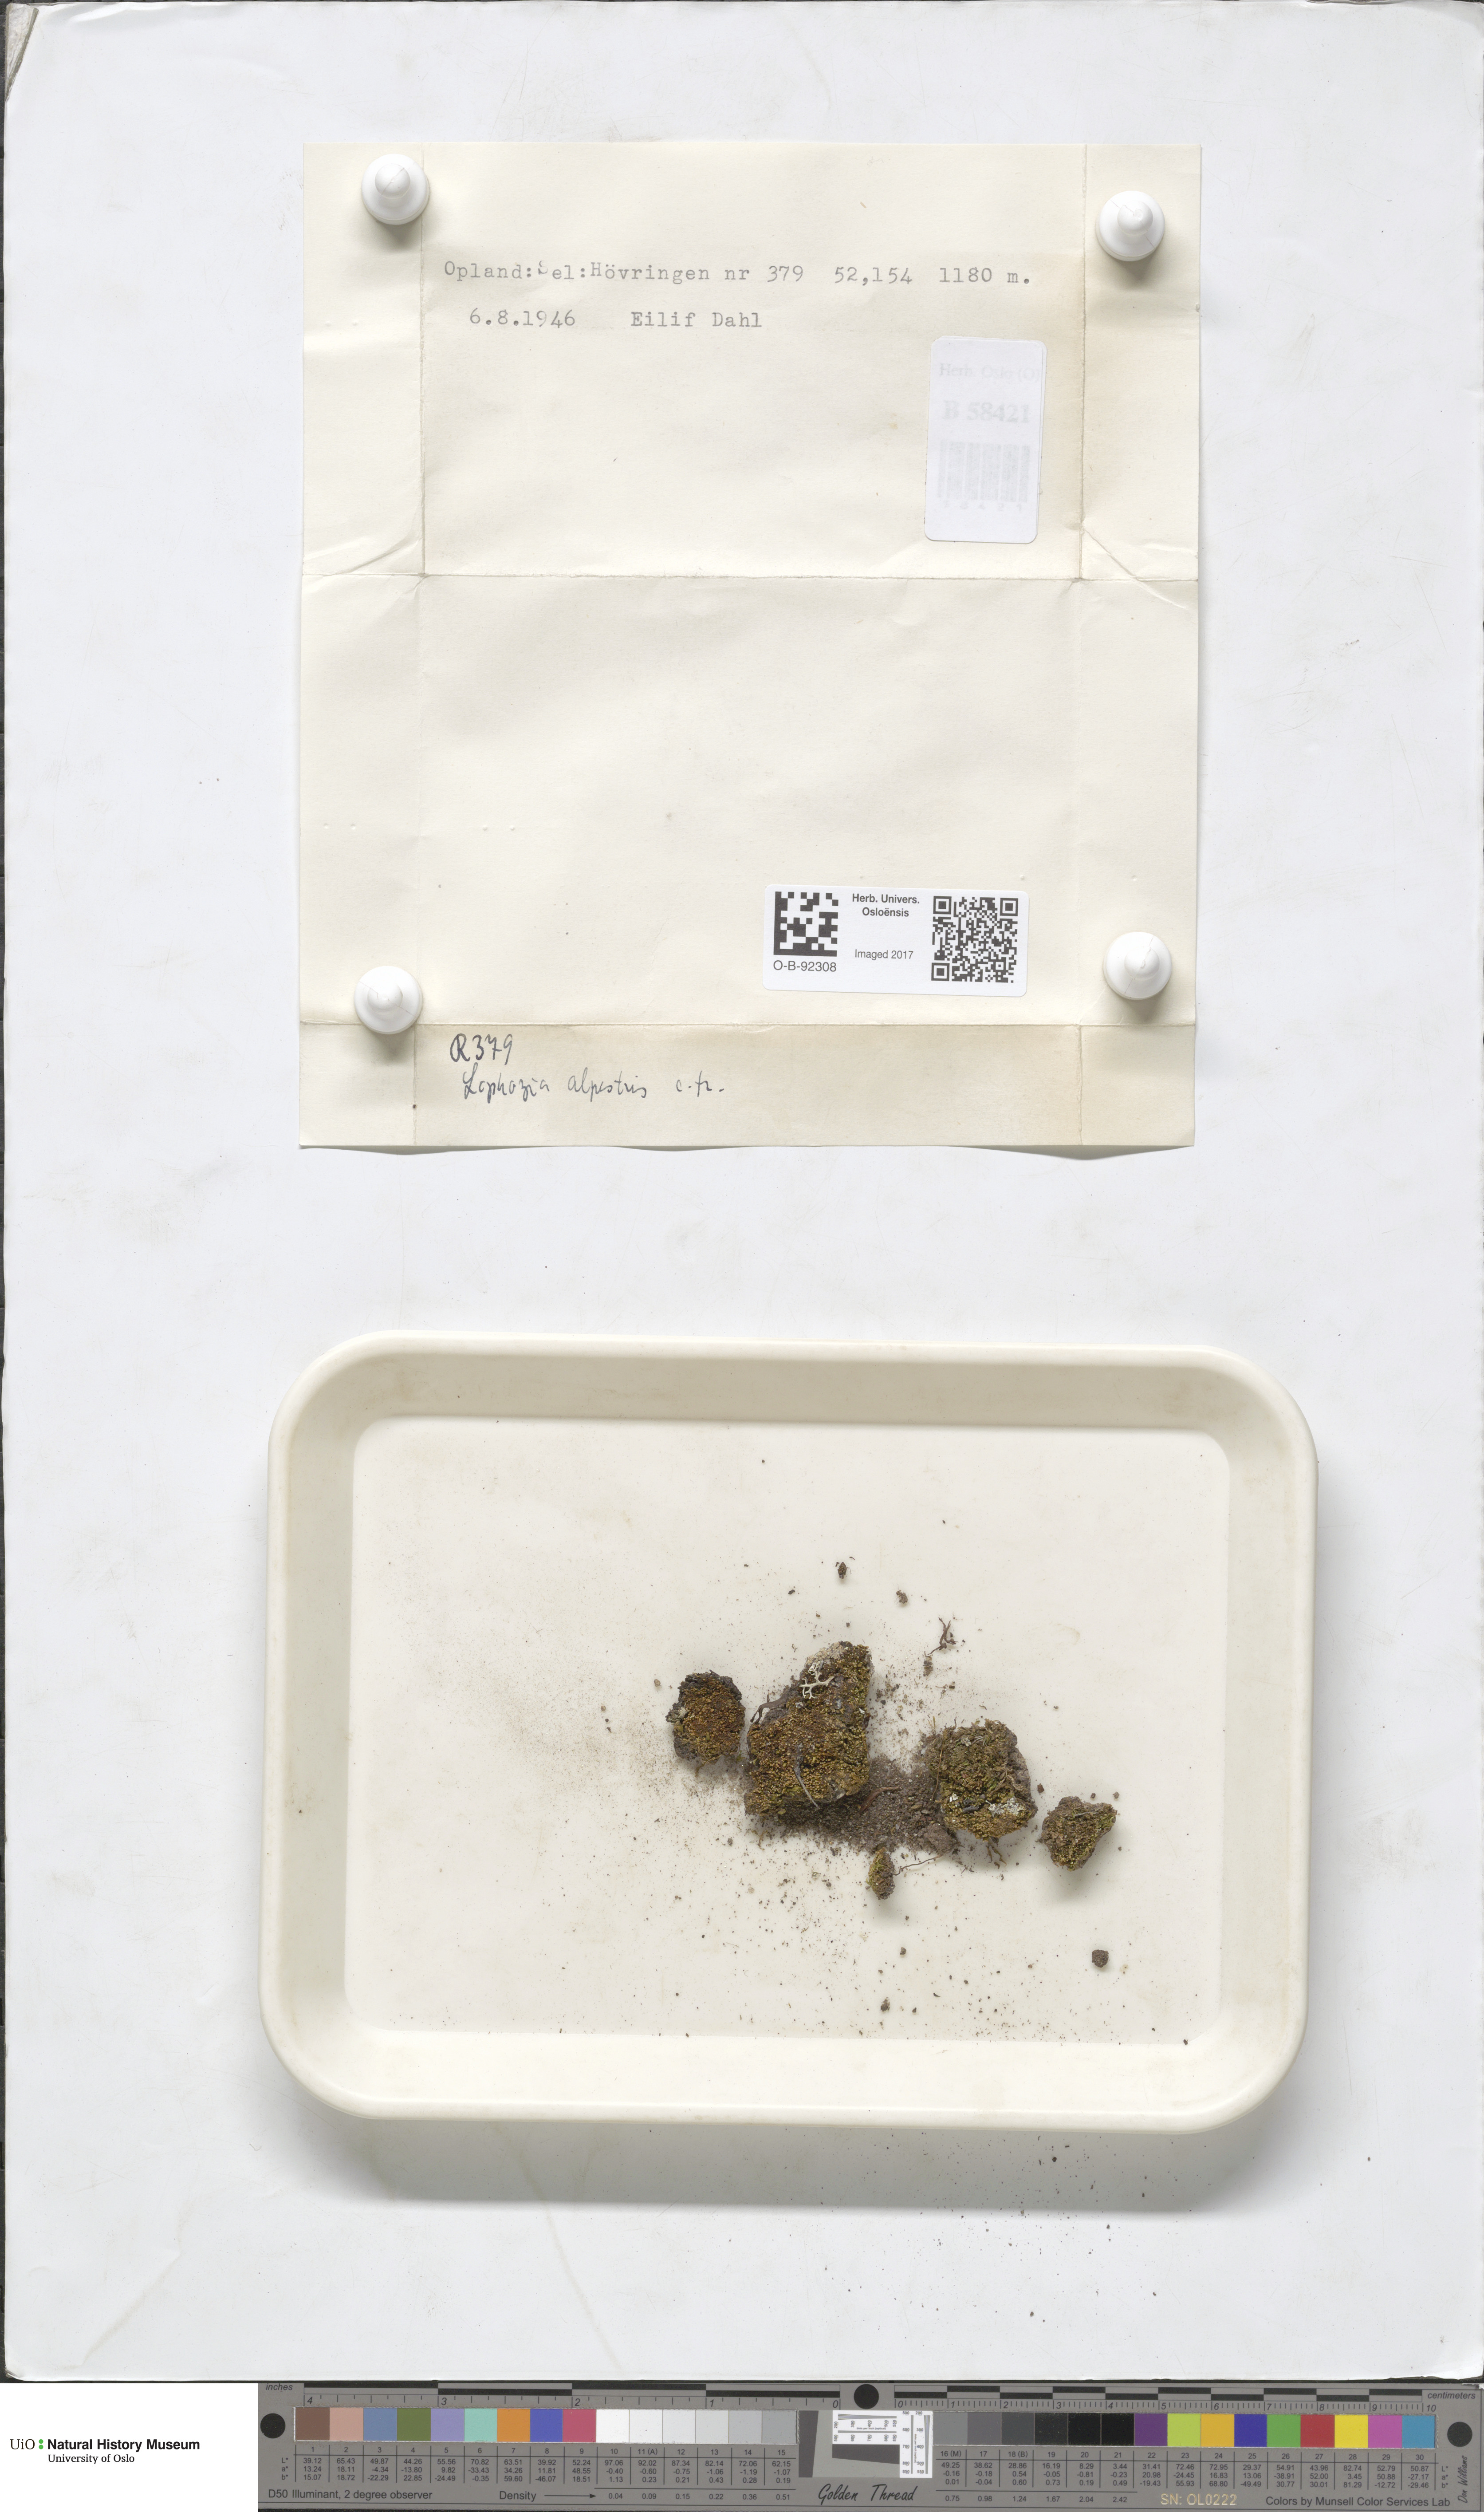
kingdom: Plantae
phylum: Marchantiophyta
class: Jungermanniopsida
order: Jungermanniales
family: Anastrophyllaceae
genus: Barbilophozia
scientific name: Barbilophozia sudetica
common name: Hill notchwort
